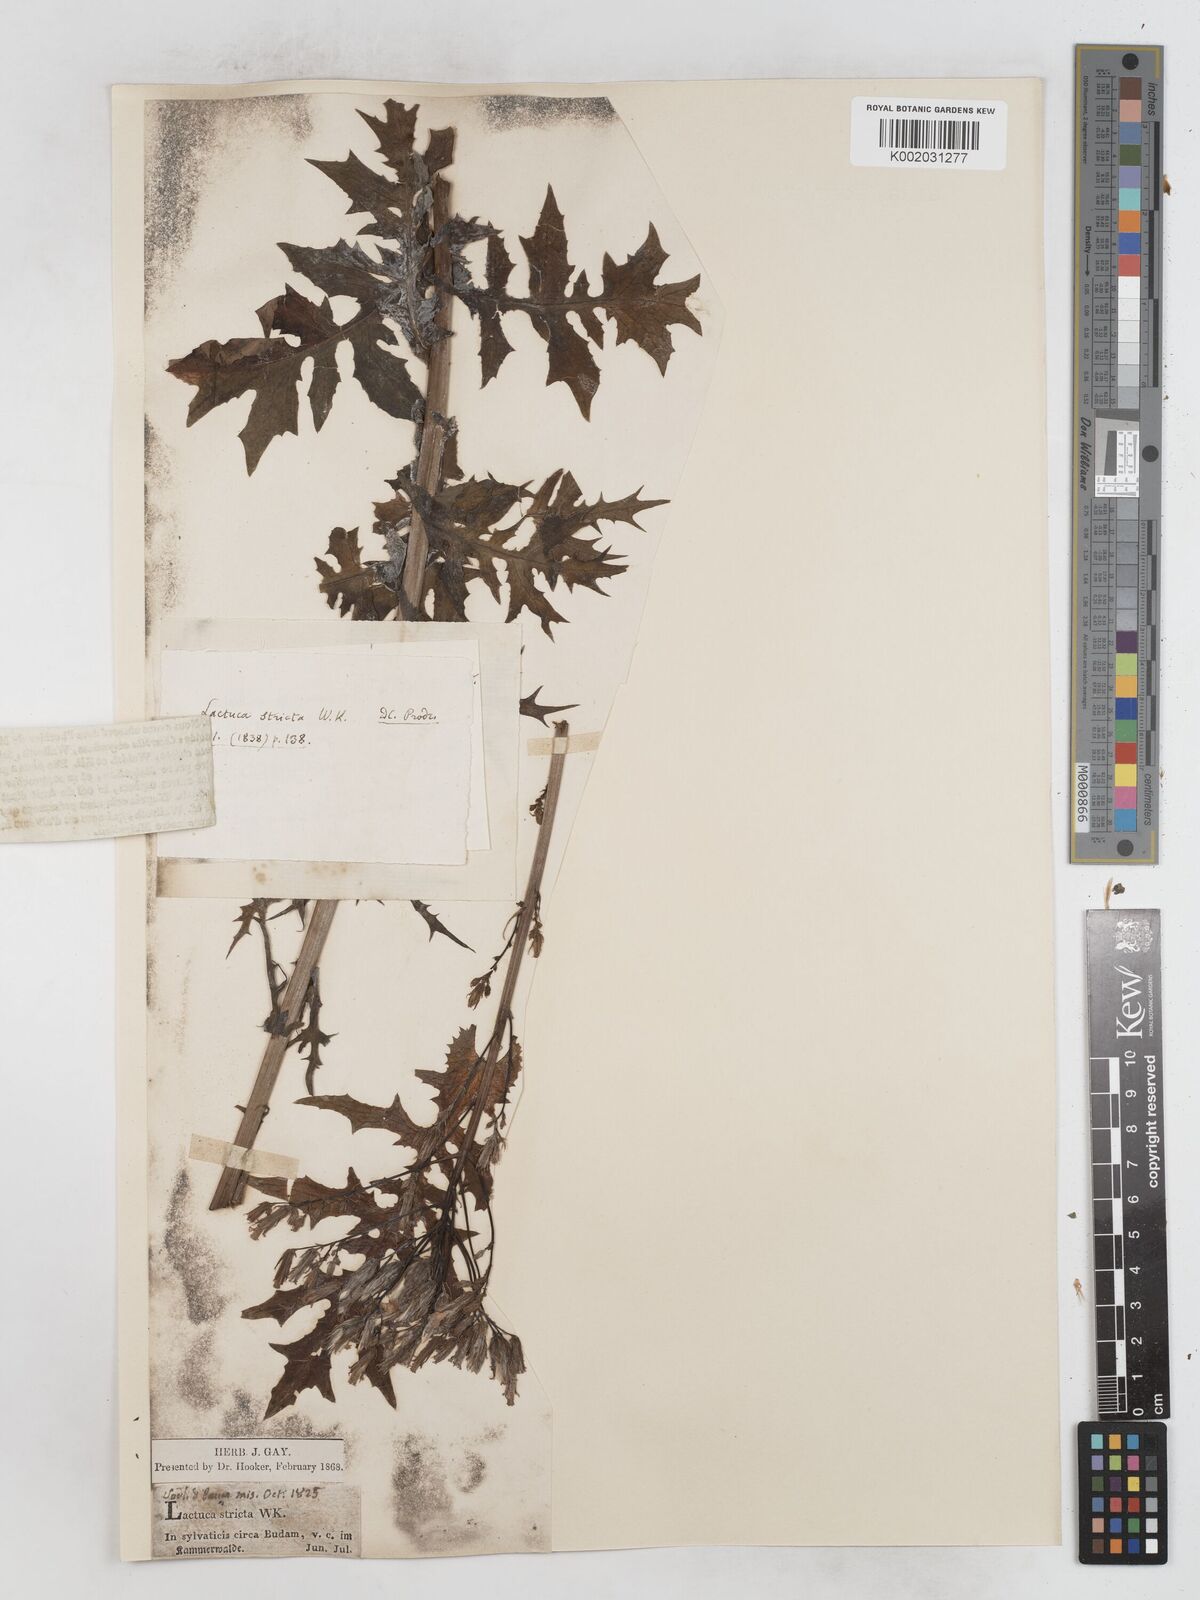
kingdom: Plantae
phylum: Tracheophyta
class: Magnoliopsida
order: Asterales
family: Asteraceae
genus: Lactuca
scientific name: Lactuca quercina
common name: Wild lettuce
